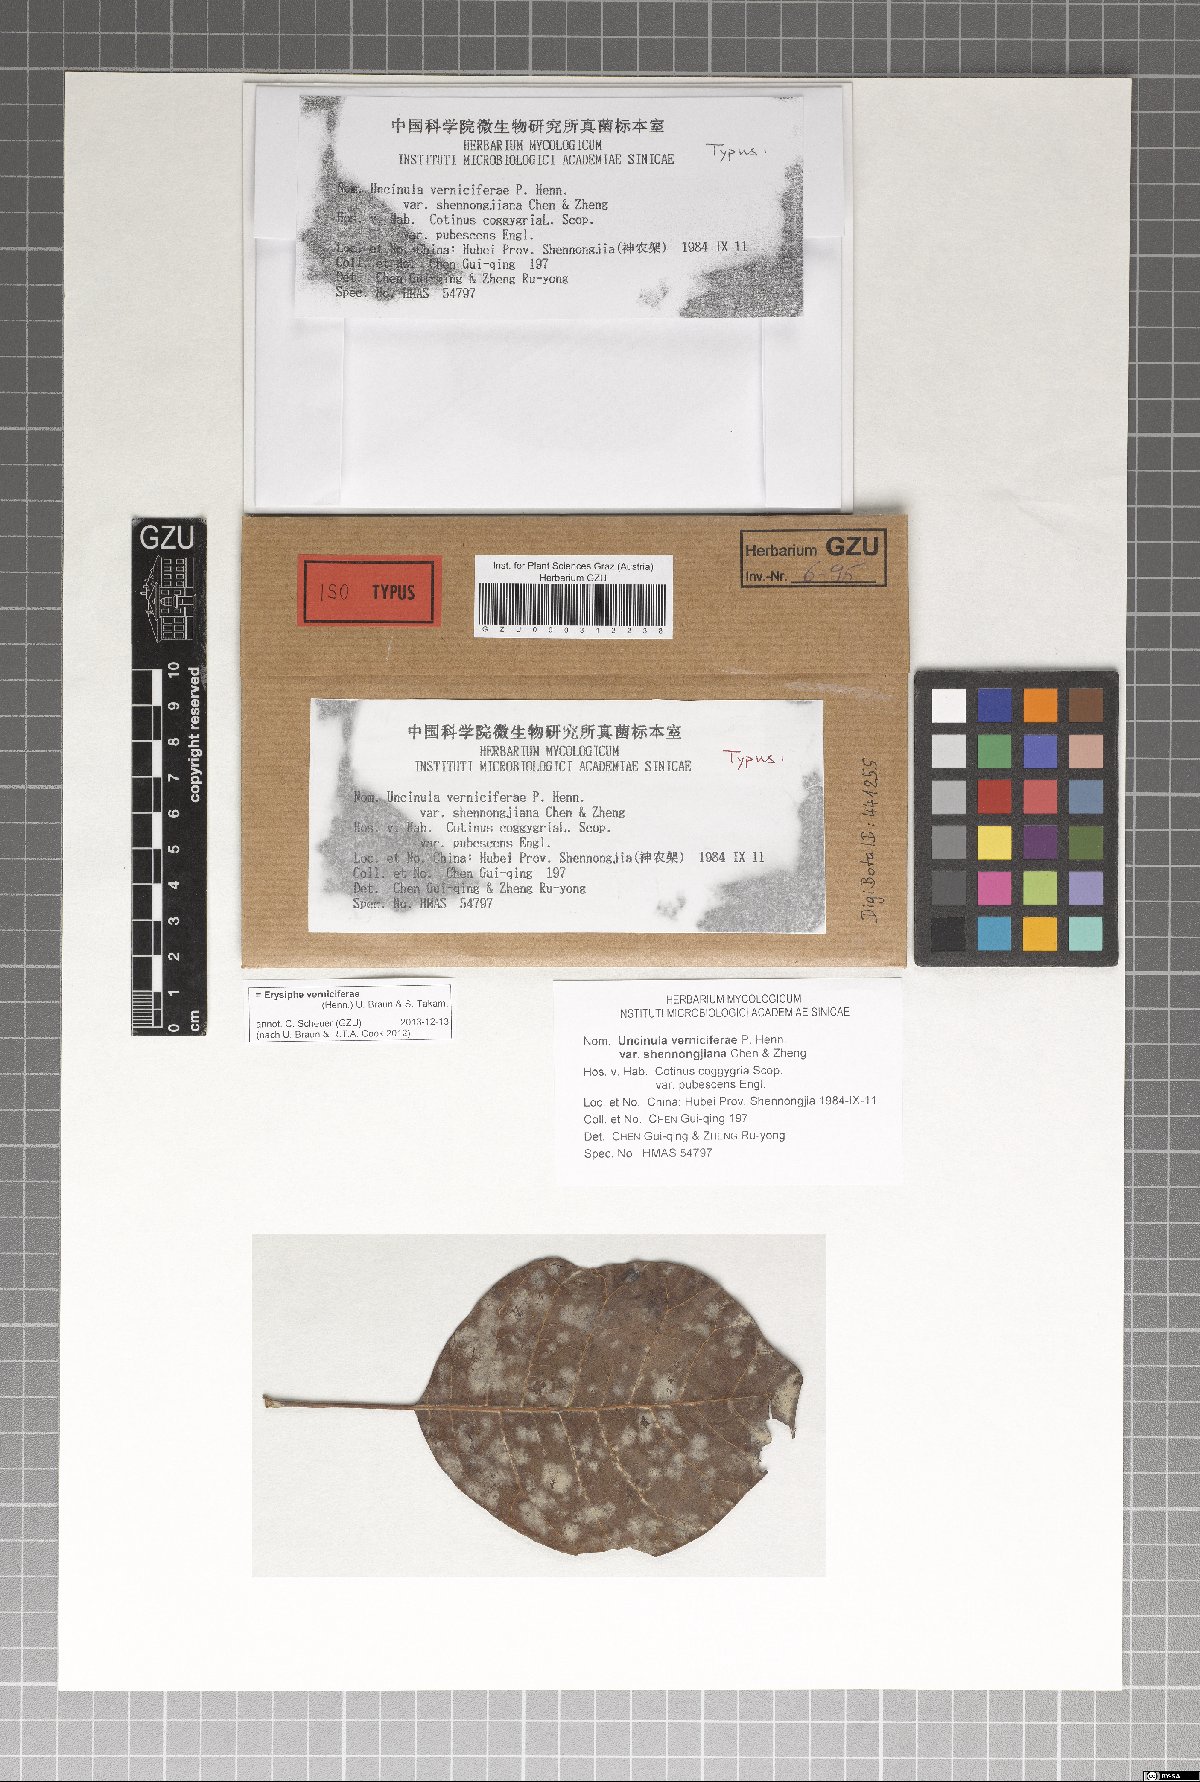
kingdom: Fungi
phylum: Ascomycota
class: Leotiomycetes
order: Helotiales
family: Erysiphaceae
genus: Erysiphe
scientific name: Erysiphe verniciferae
